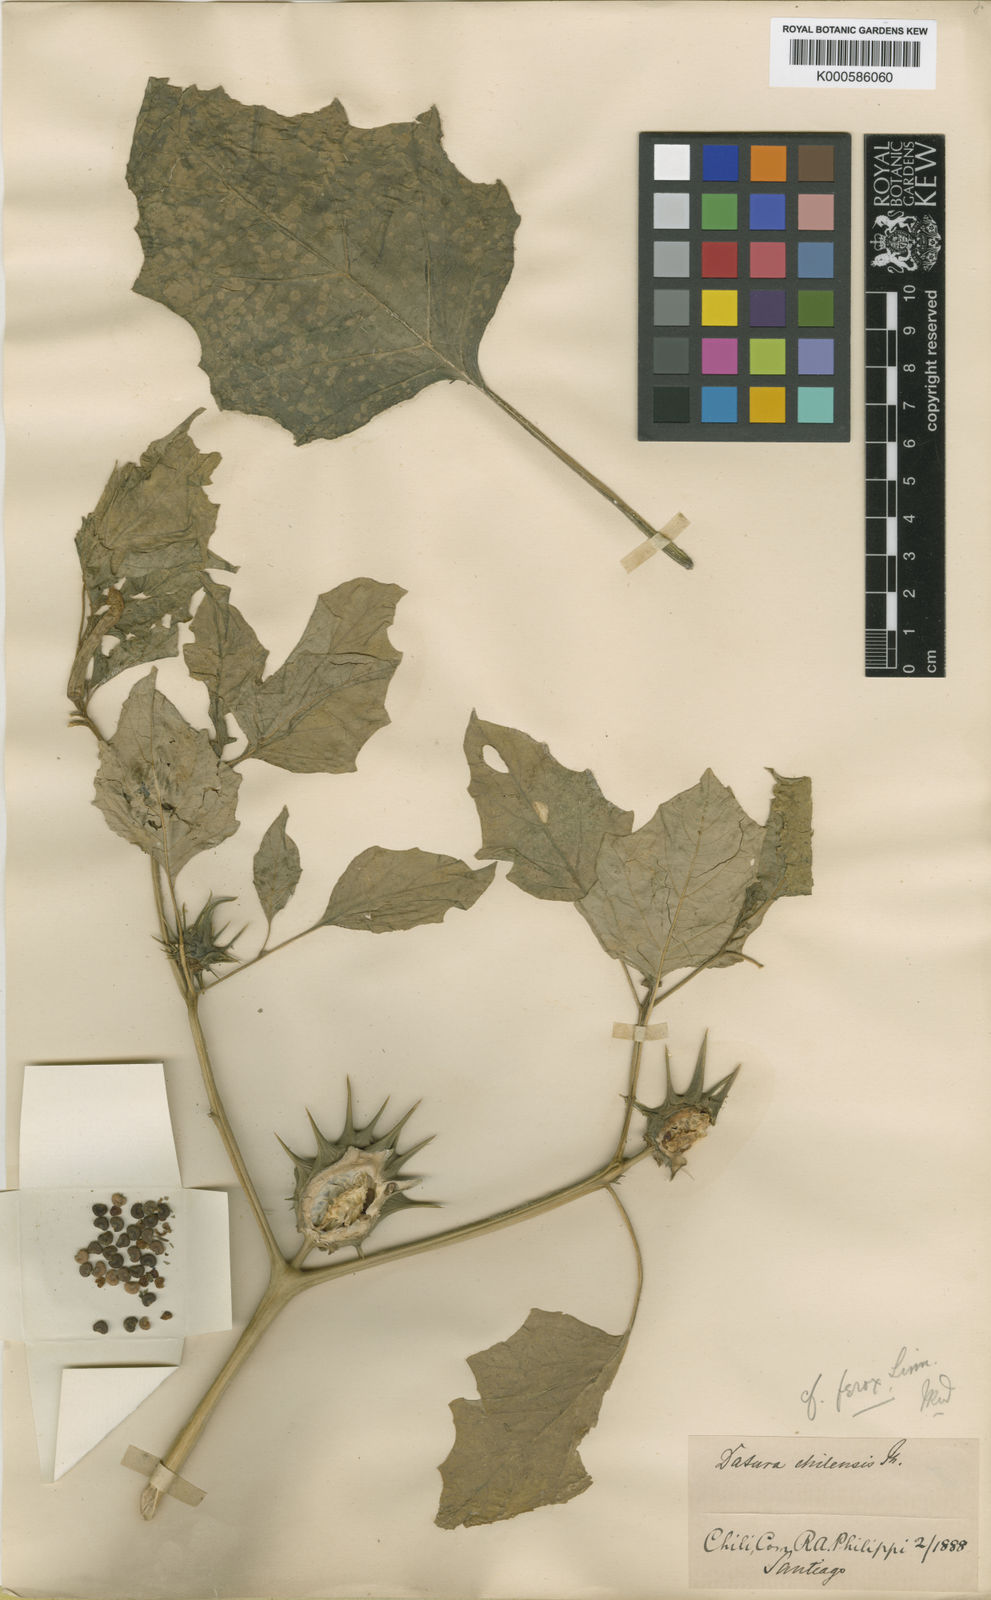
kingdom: Plantae
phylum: Tracheophyta
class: Magnoliopsida
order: Solanales
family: Solanaceae
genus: Datura
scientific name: Datura ferox
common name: Angel's-trumpets
